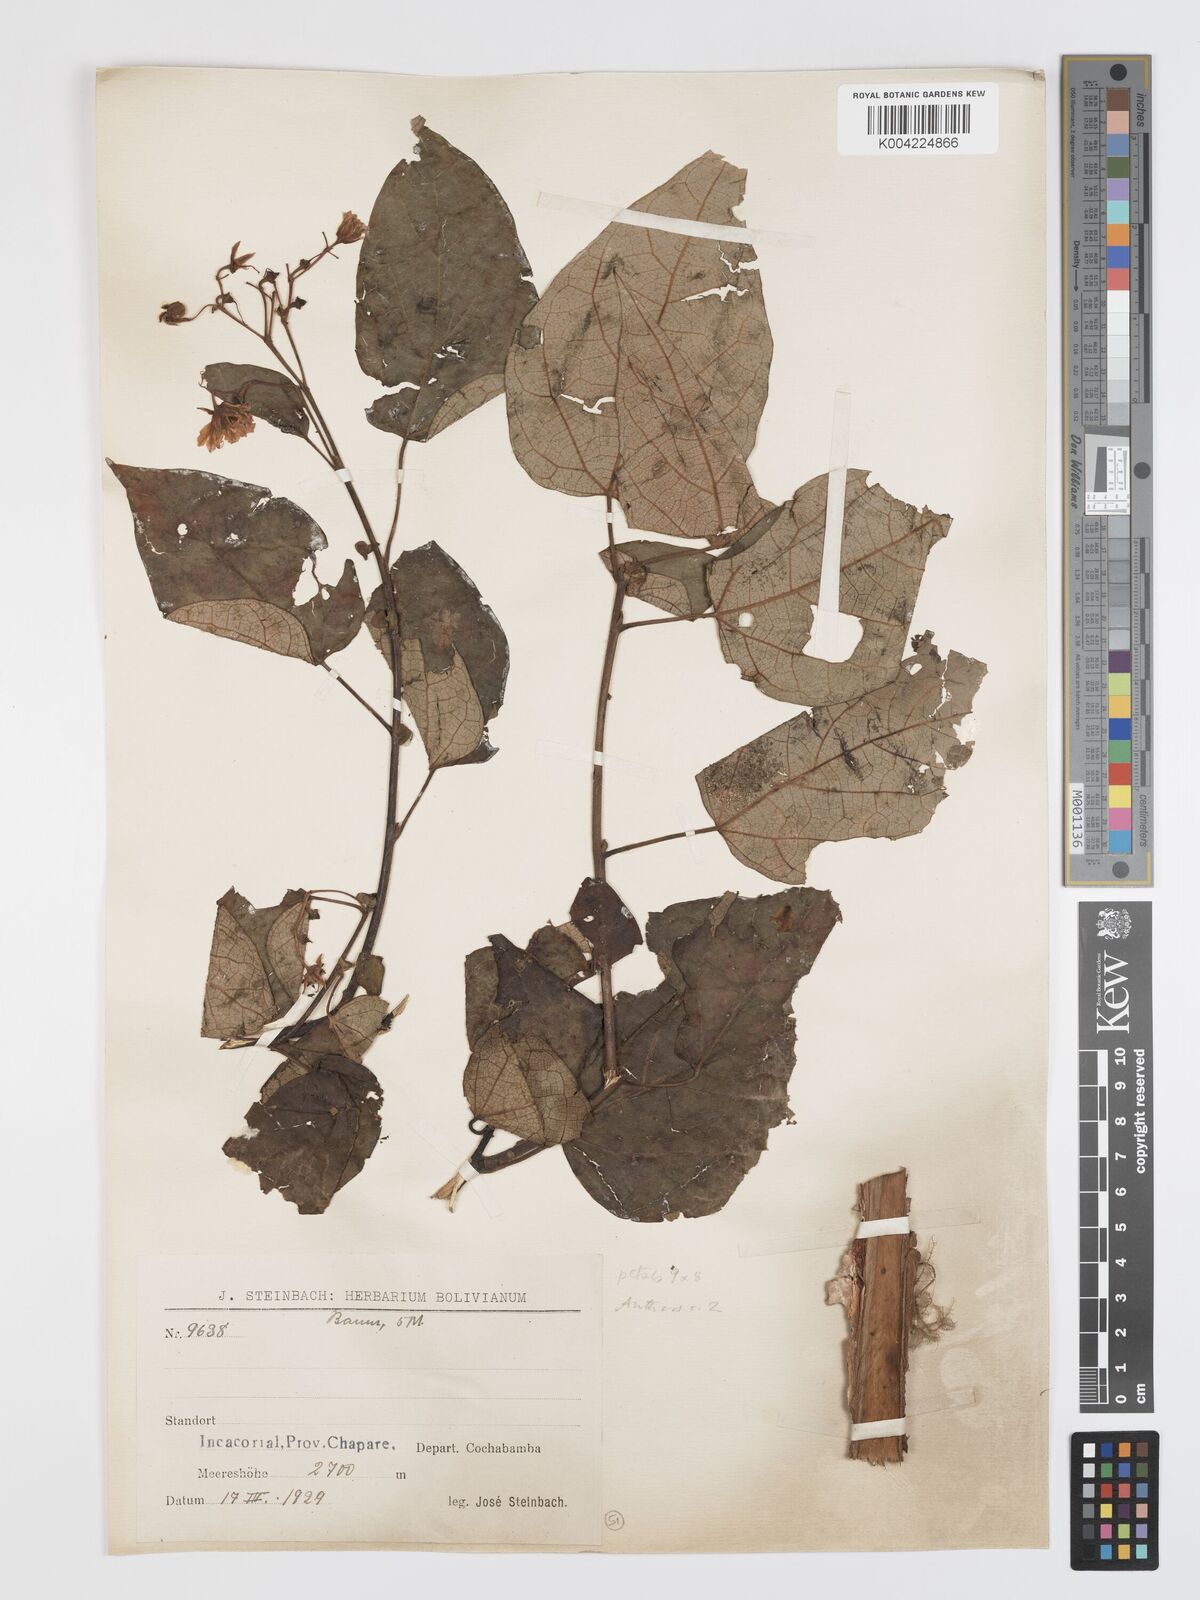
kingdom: Plantae
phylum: Tracheophyta
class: Magnoliopsida
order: Oxalidales
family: Elaeocarpaceae
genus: Vallea
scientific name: Vallea stipularis
